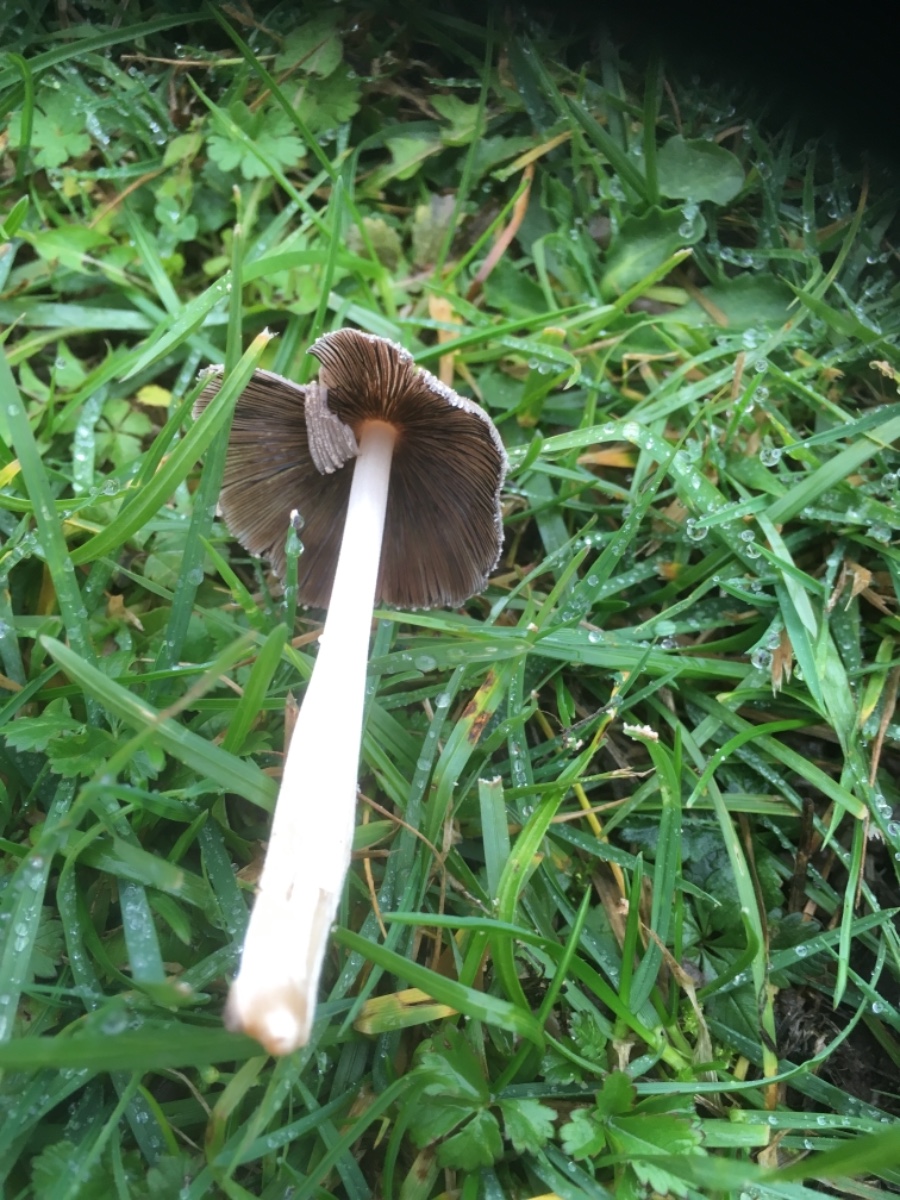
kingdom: Fungi
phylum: Basidiomycota
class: Agaricomycetes
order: Agaricales
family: Psathyrellaceae
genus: Coprinellus
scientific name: Coprinellus
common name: blækhat
